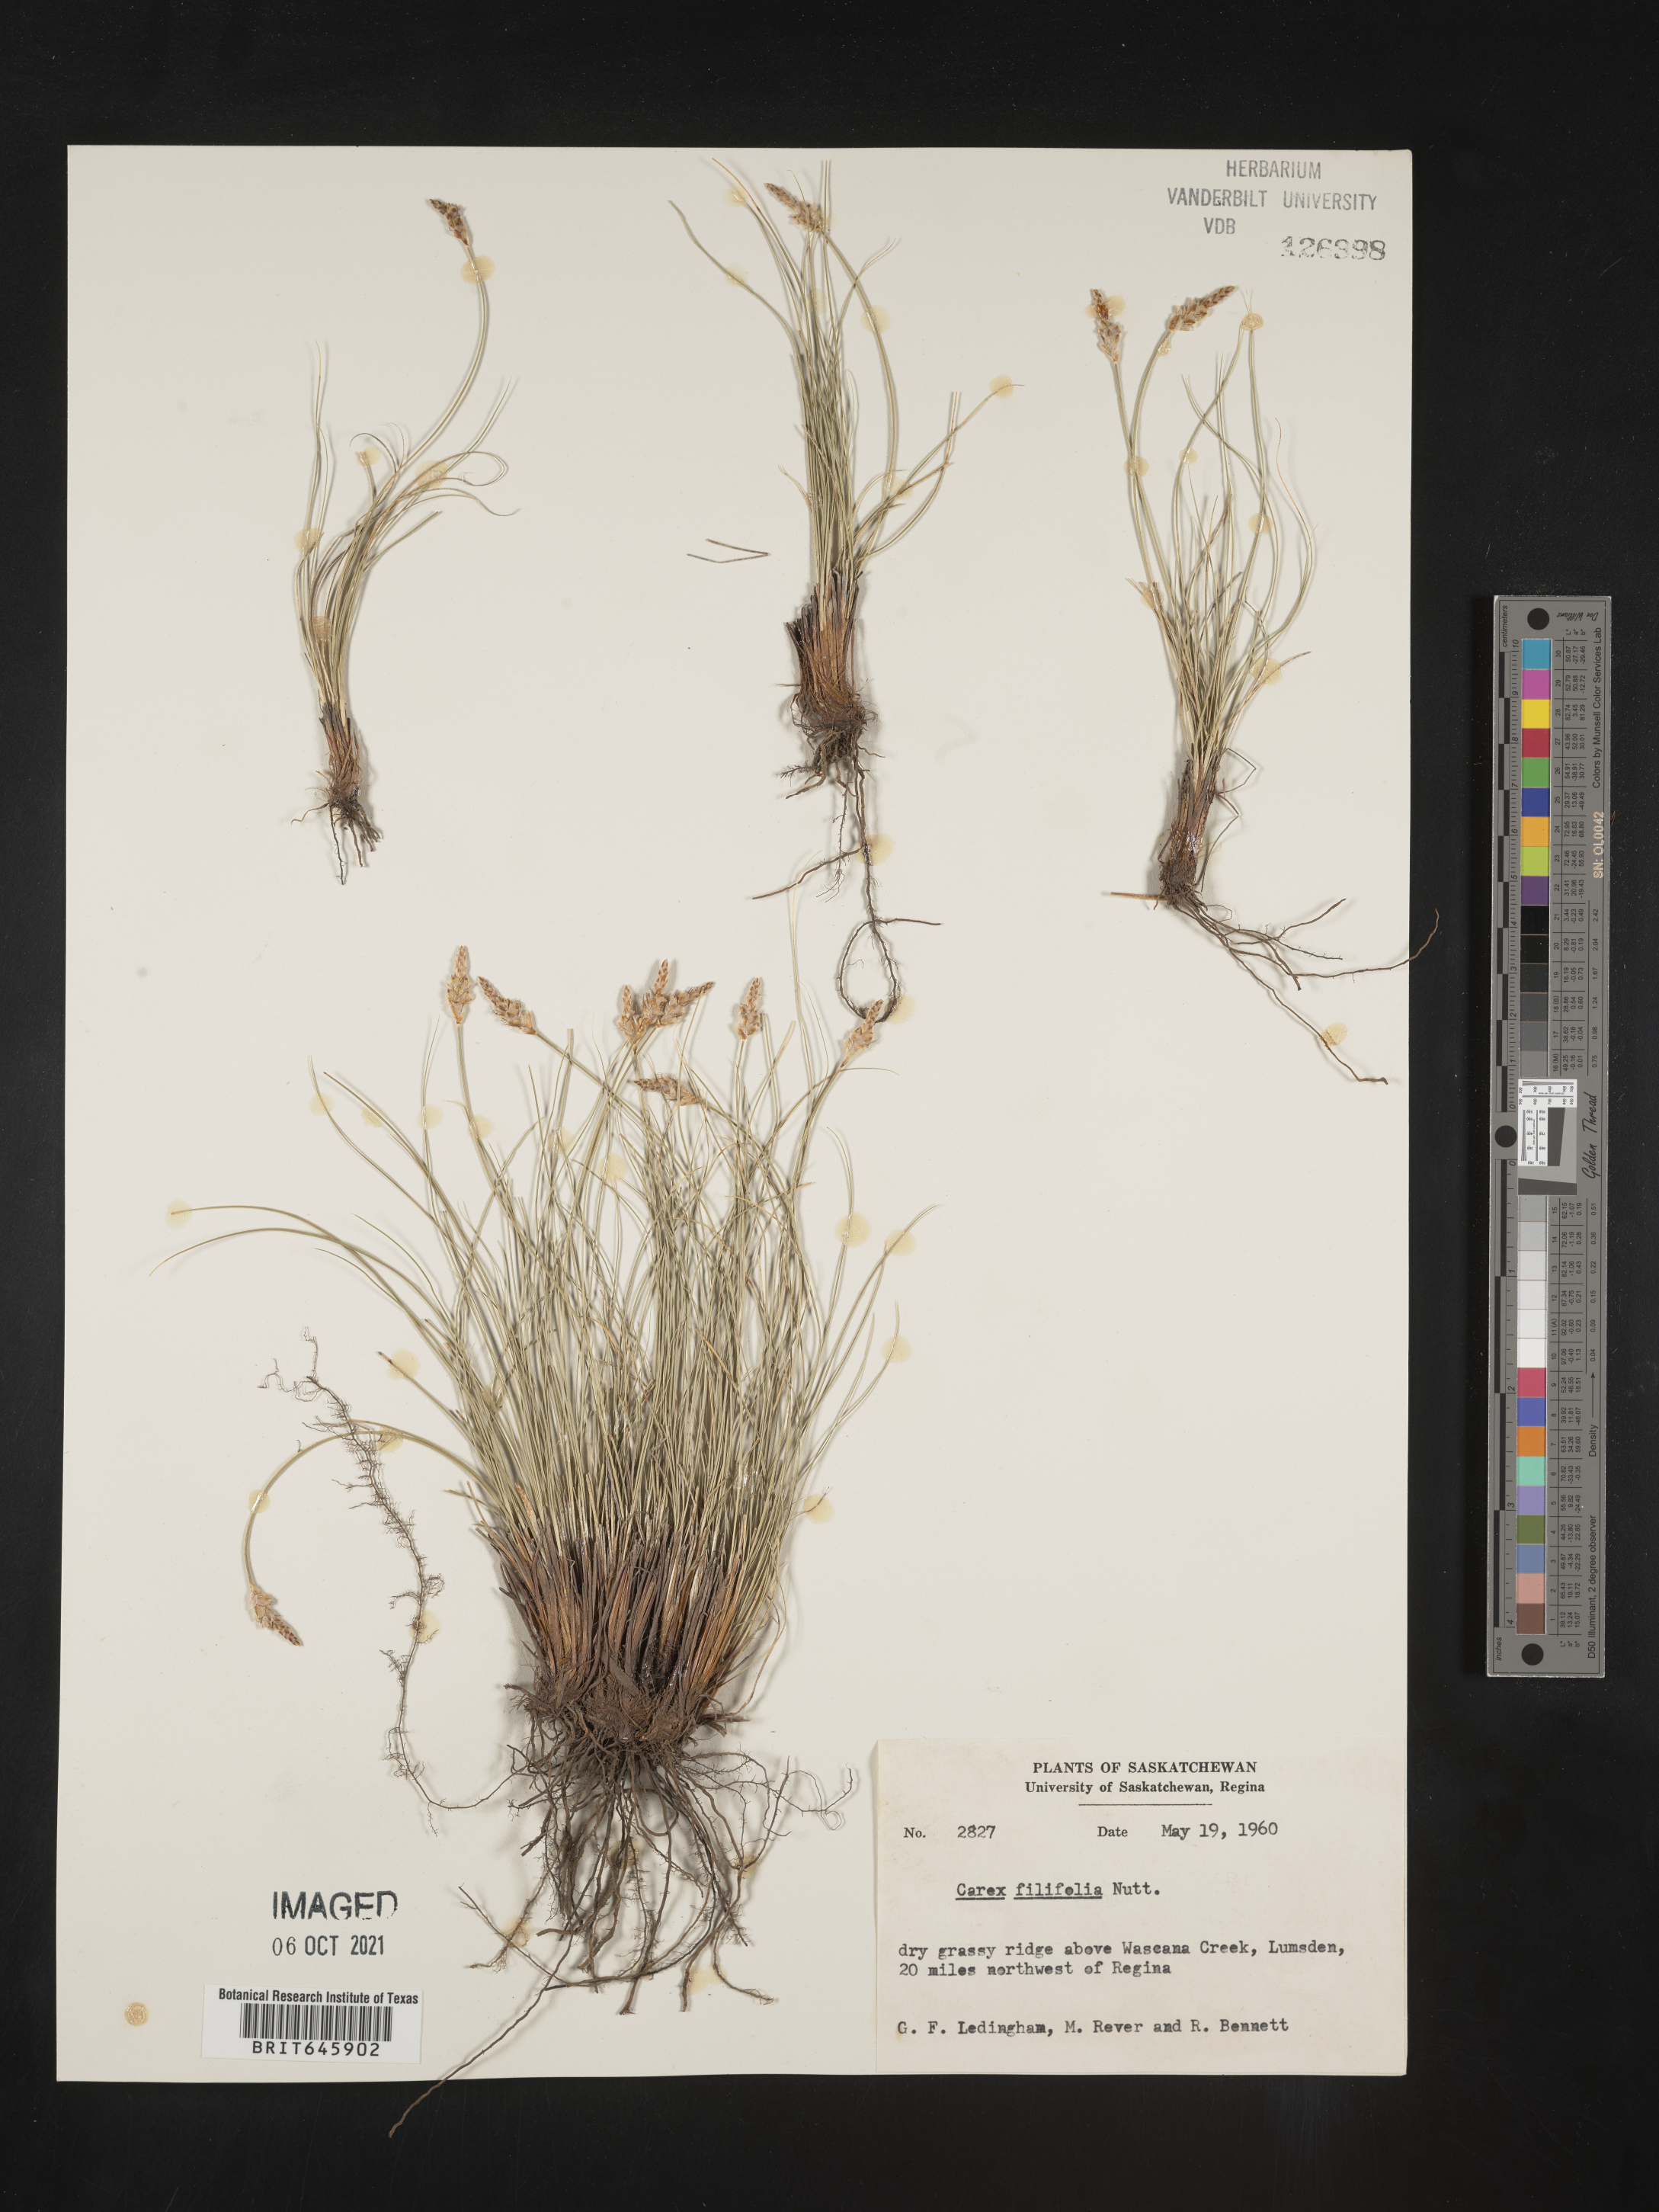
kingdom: Plantae
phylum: Tracheophyta
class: Liliopsida
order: Poales
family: Cyperaceae
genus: Carex
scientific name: Carex filifolia
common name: Threadleaf sedge
